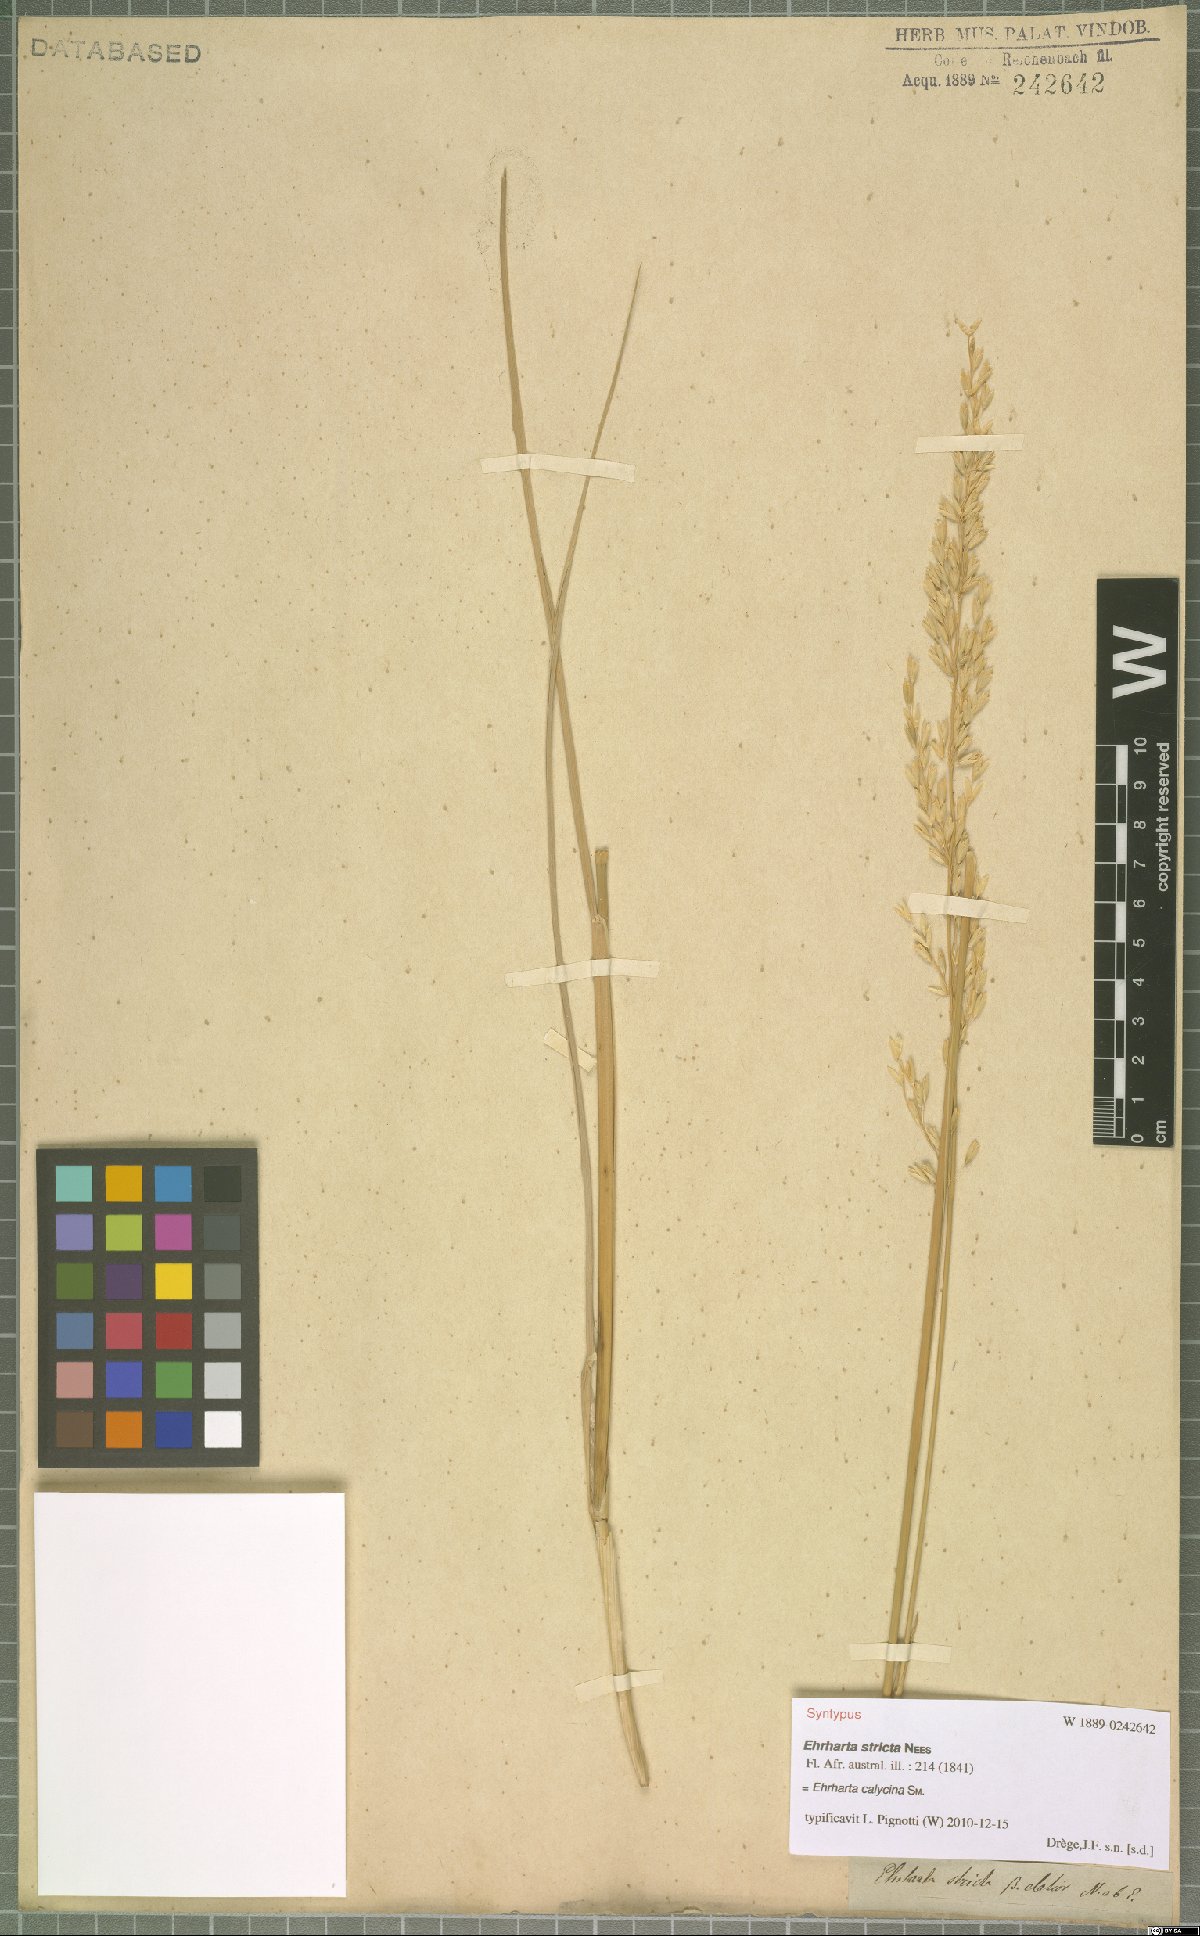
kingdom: Plantae
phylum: Tracheophyta
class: Liliopsida
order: Poales
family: Poaceae
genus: Ehrharta
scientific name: Ehrharta calycina
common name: Perennial veldtgrass
